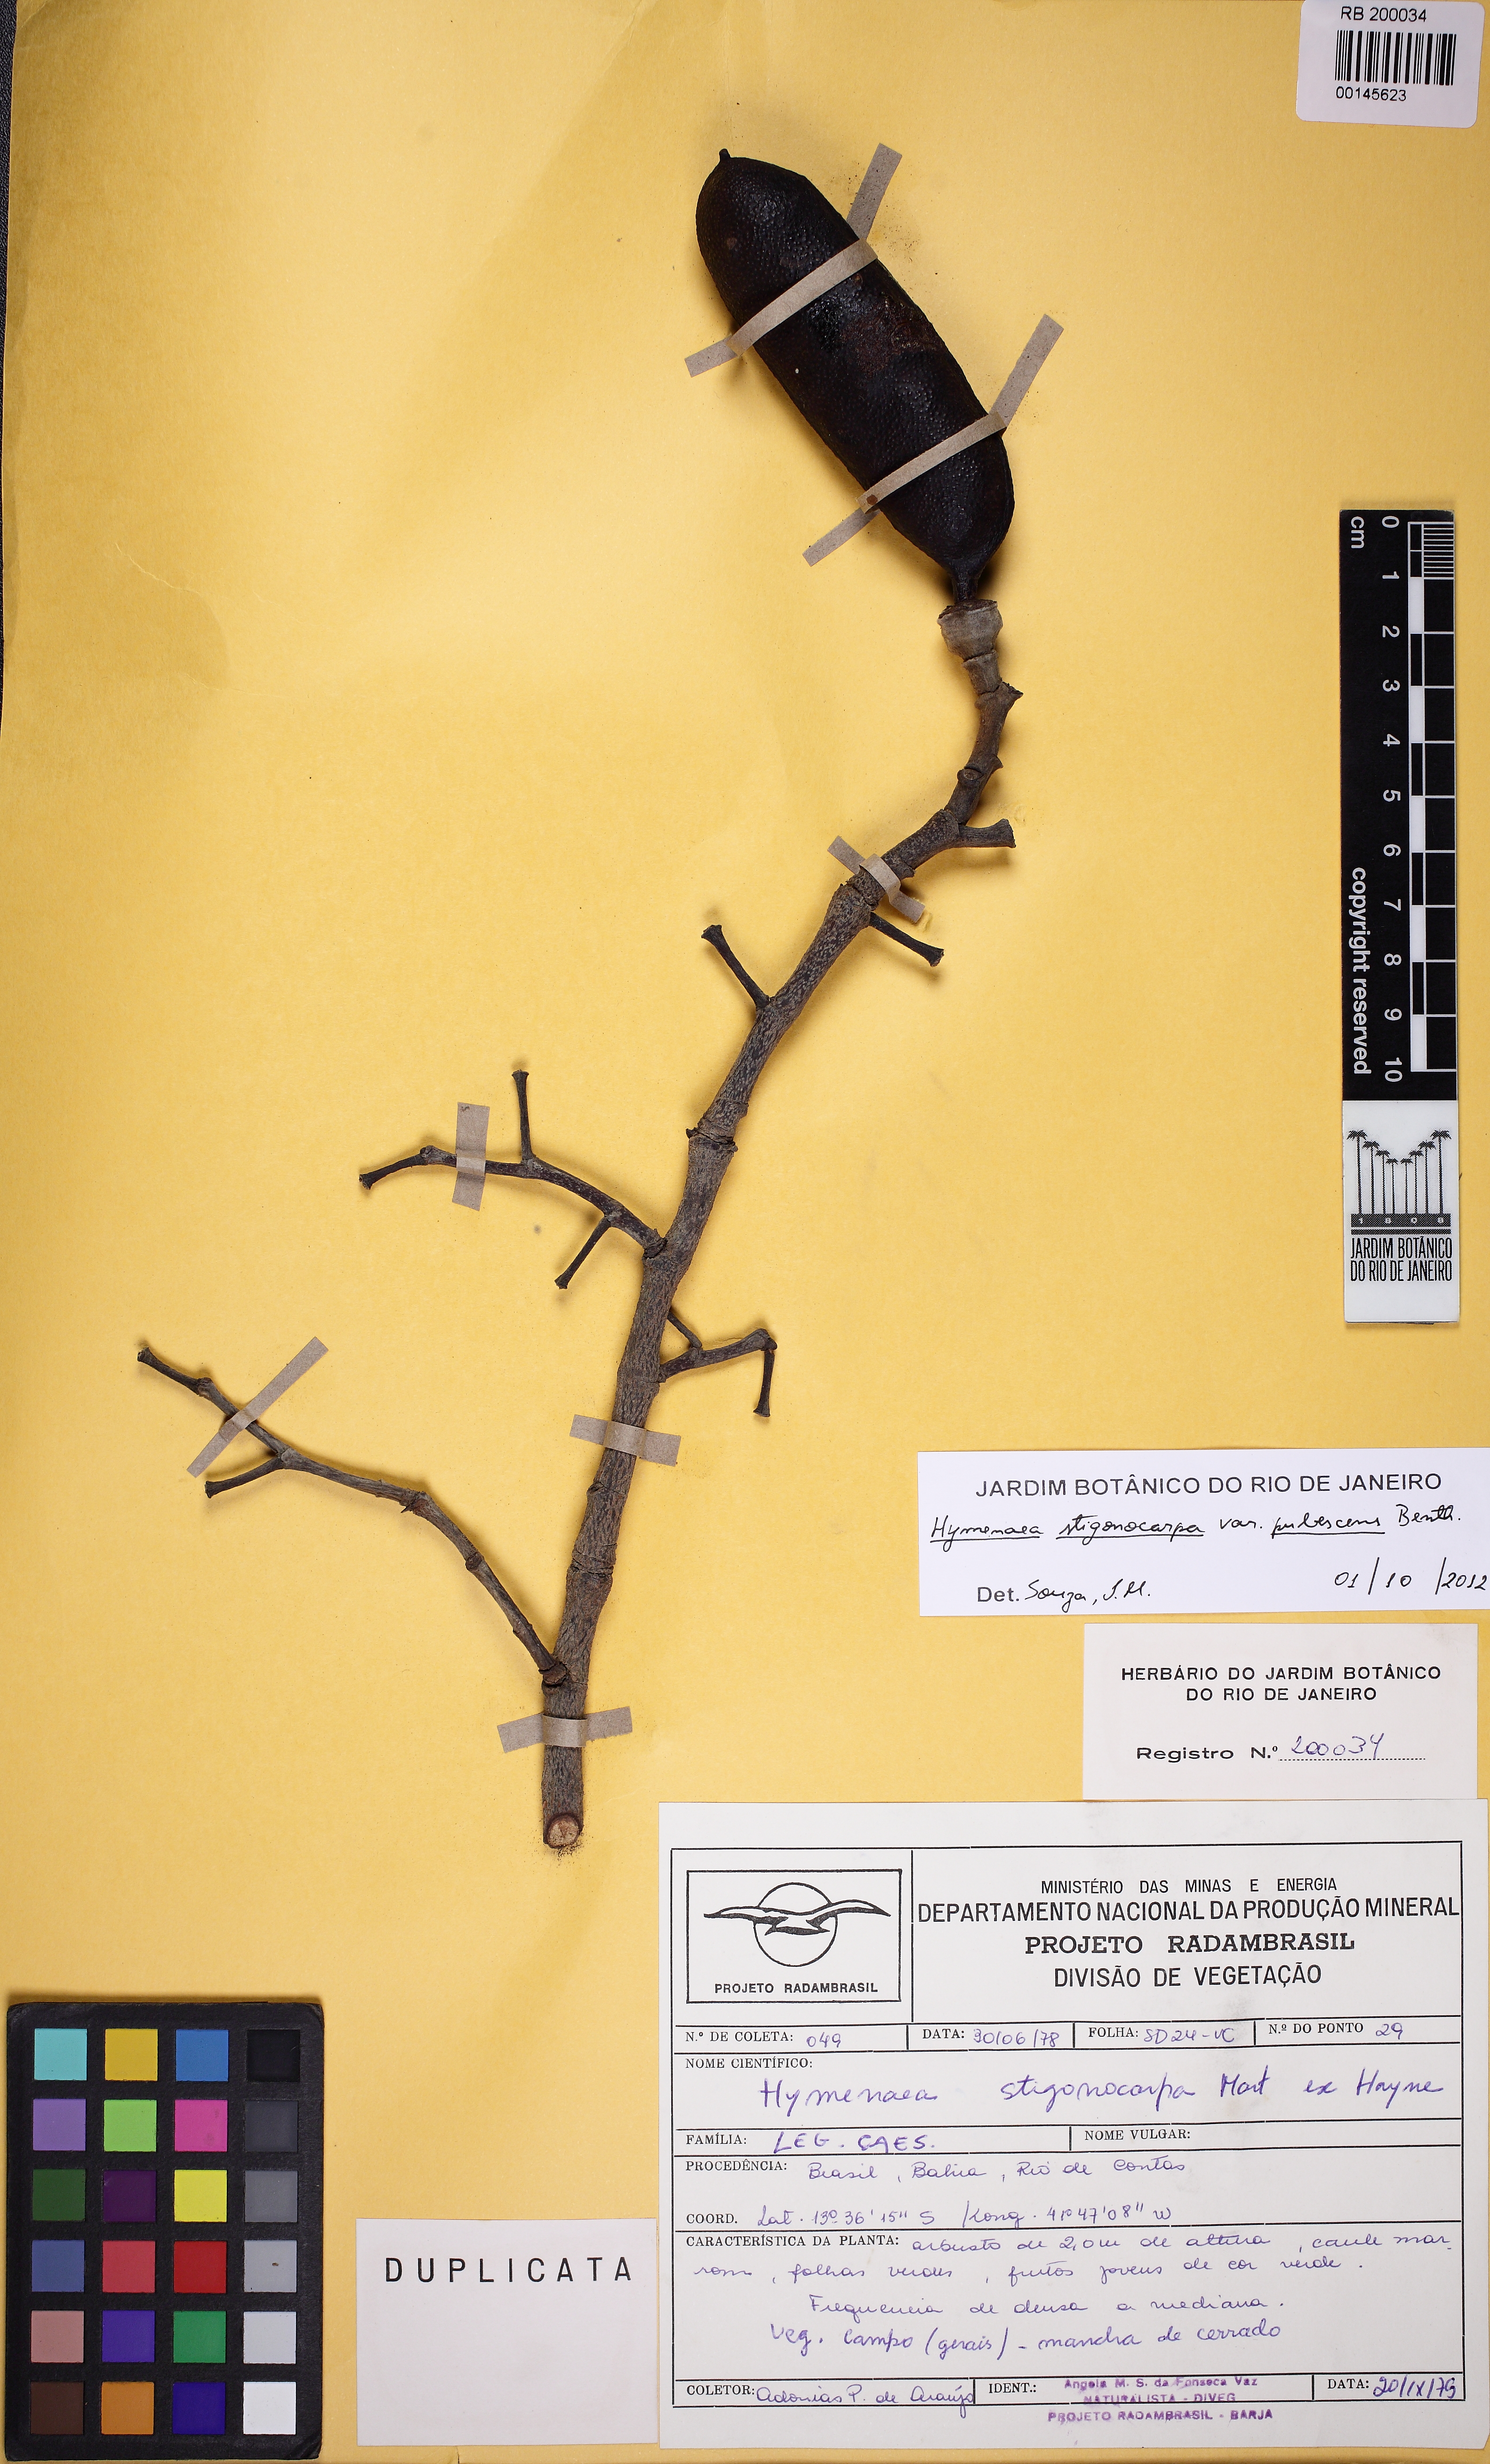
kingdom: Plantae
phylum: Tracheophyta
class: Magnoliopsida
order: Fabales
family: Fabaceae
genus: Hymenaea
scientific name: Hymenaea stigonocarpa
